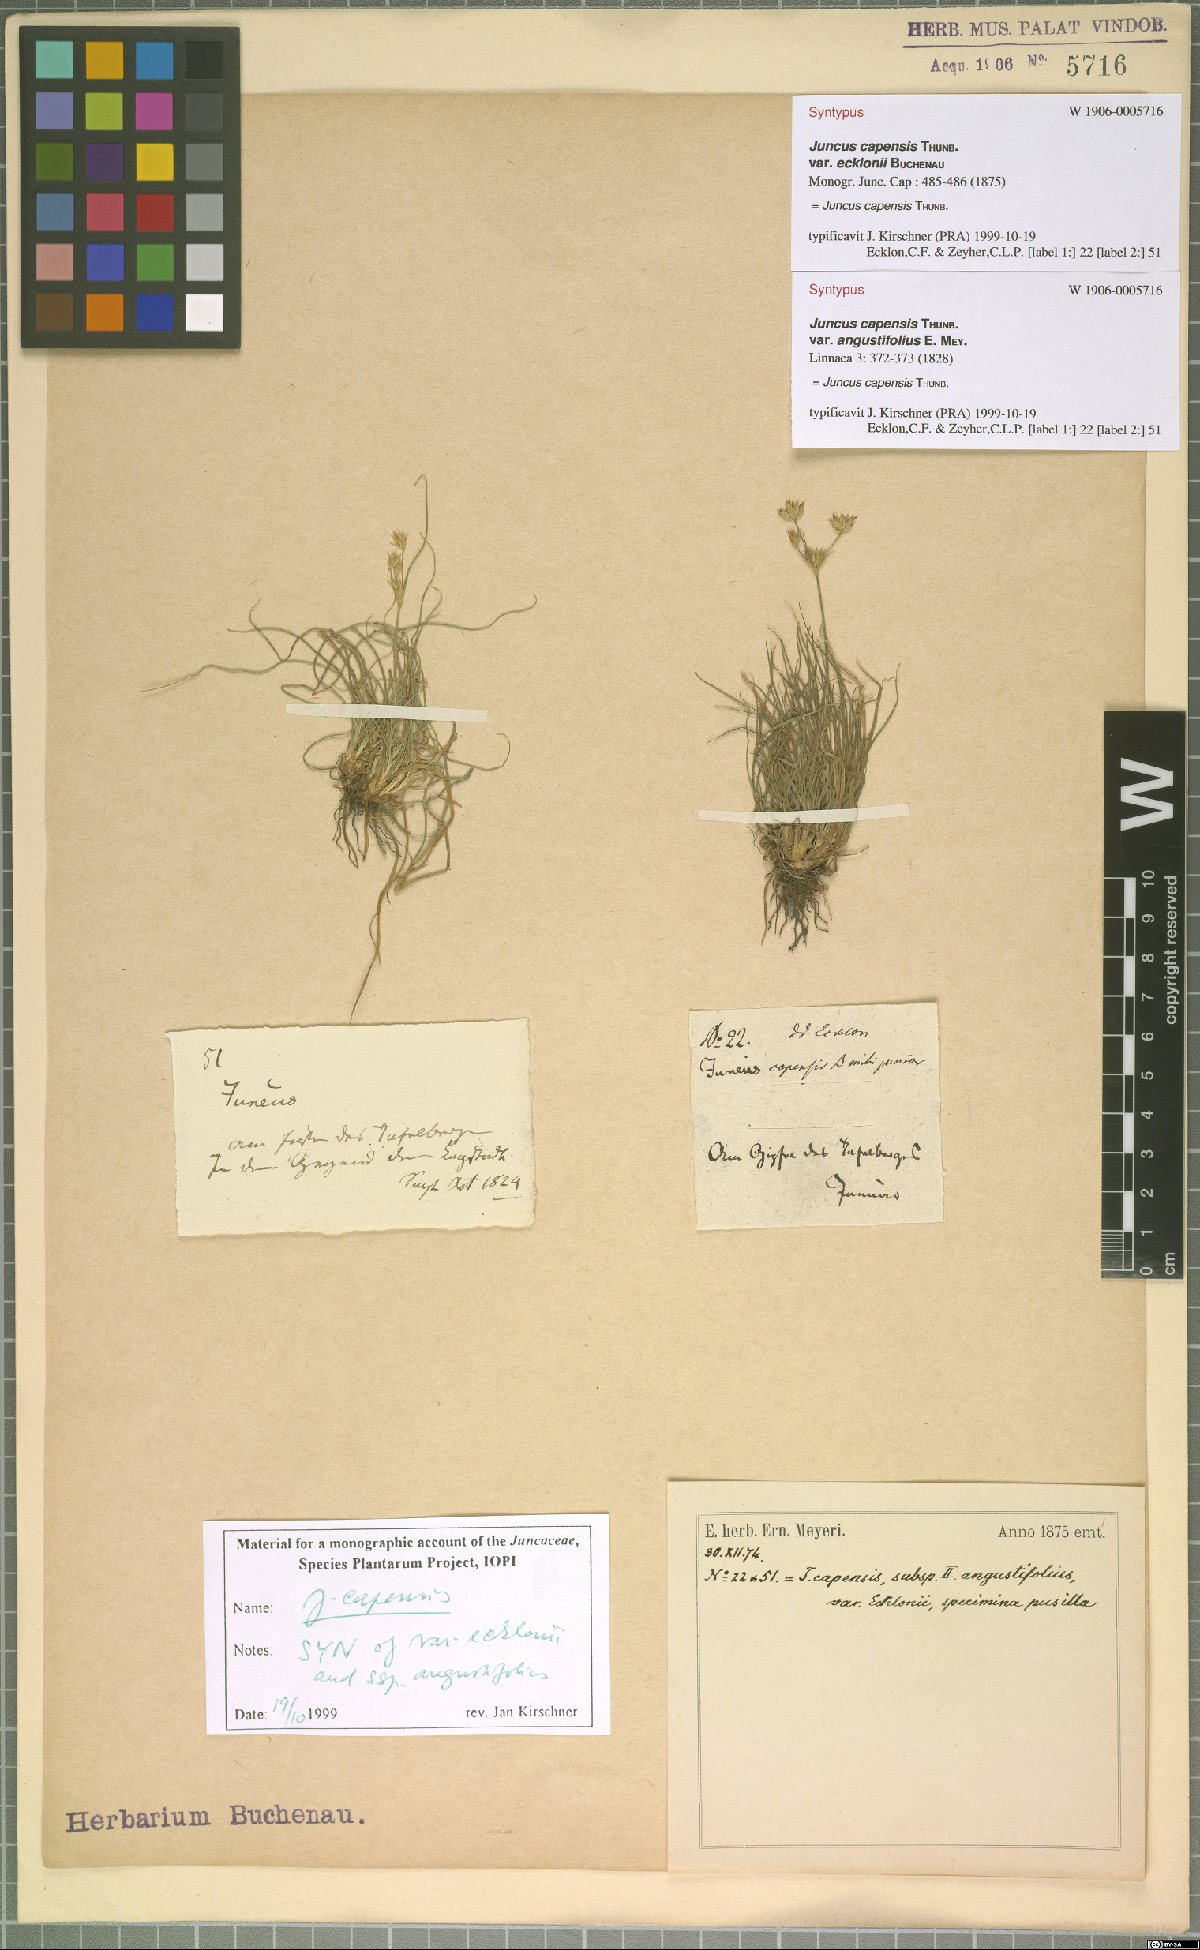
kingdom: Plantae
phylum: Tracheophyta
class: Liliopsida
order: Poales
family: Juncaceae
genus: Juncus
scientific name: Juncus capensis
